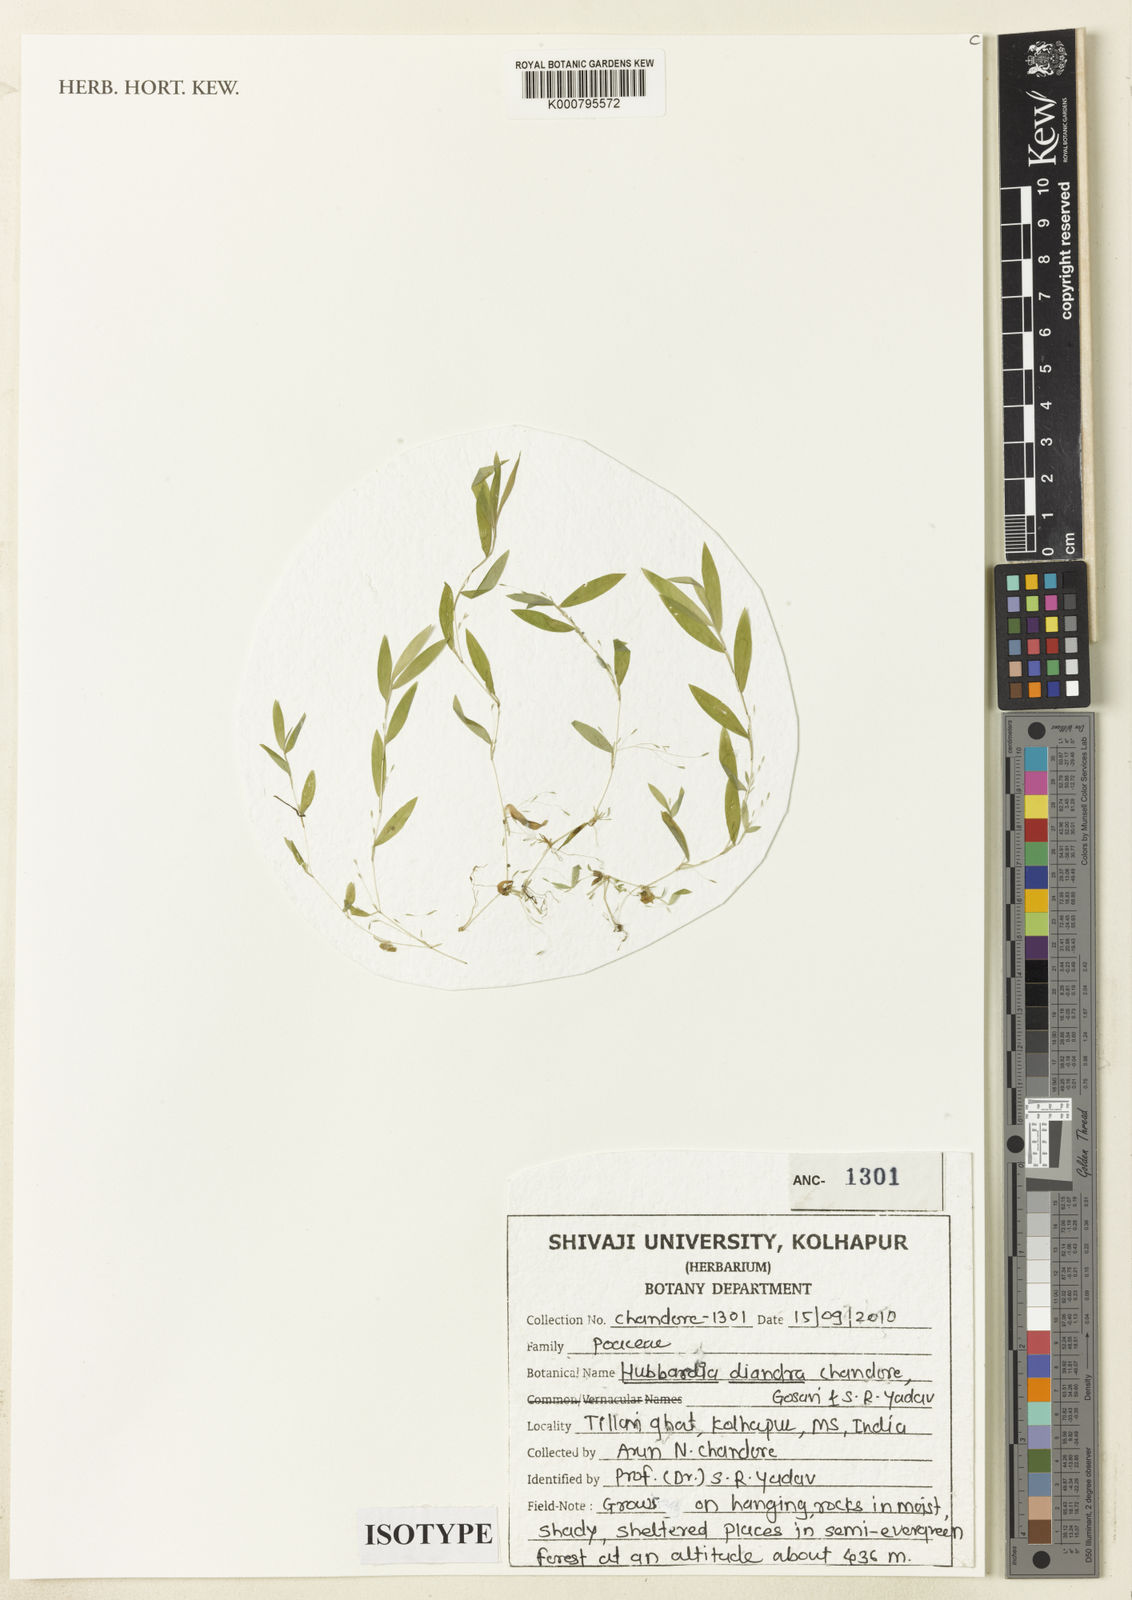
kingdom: Plantae
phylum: Tracheophyta
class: Liliopsida
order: Poales
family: Poaceae
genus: Hubbardia
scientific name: Hubbardia diandra
